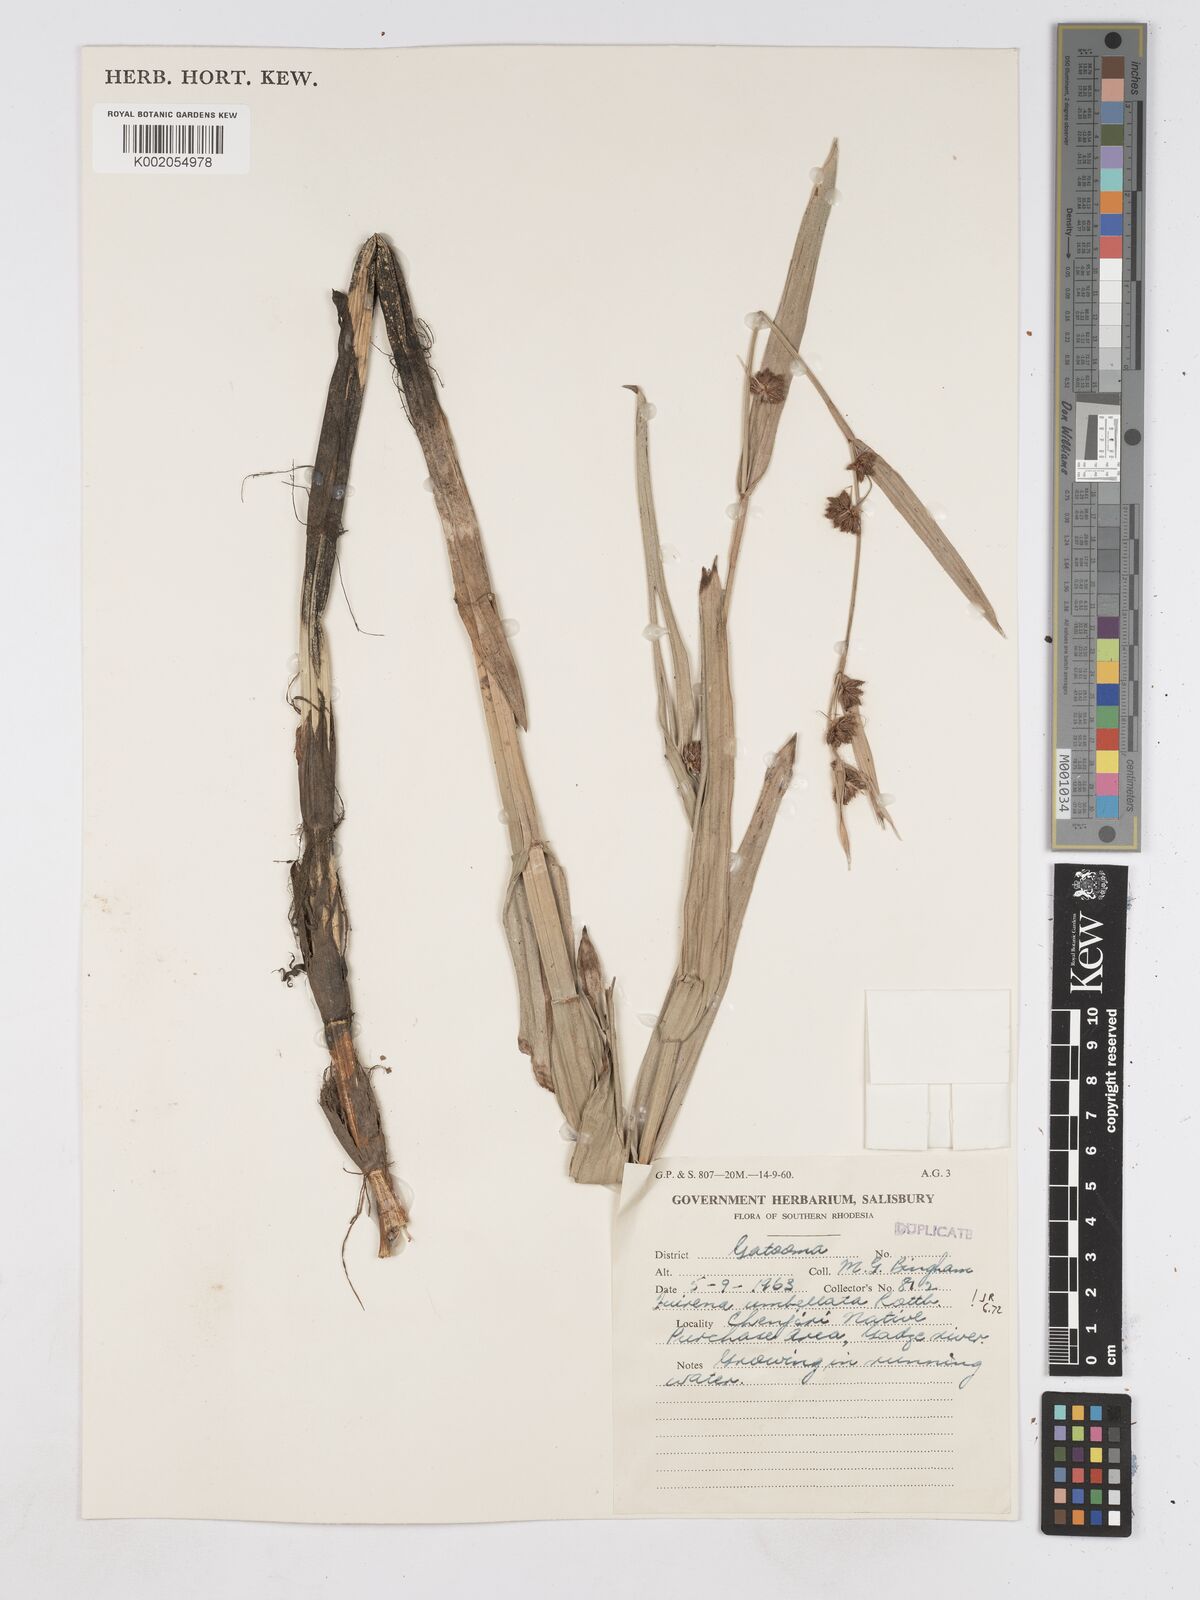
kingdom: Plantae
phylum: Tracheophyta
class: Liliopsida
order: Poales
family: Cyperaceae
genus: Fuirena
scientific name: Fuirena umbellata
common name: Yefen
